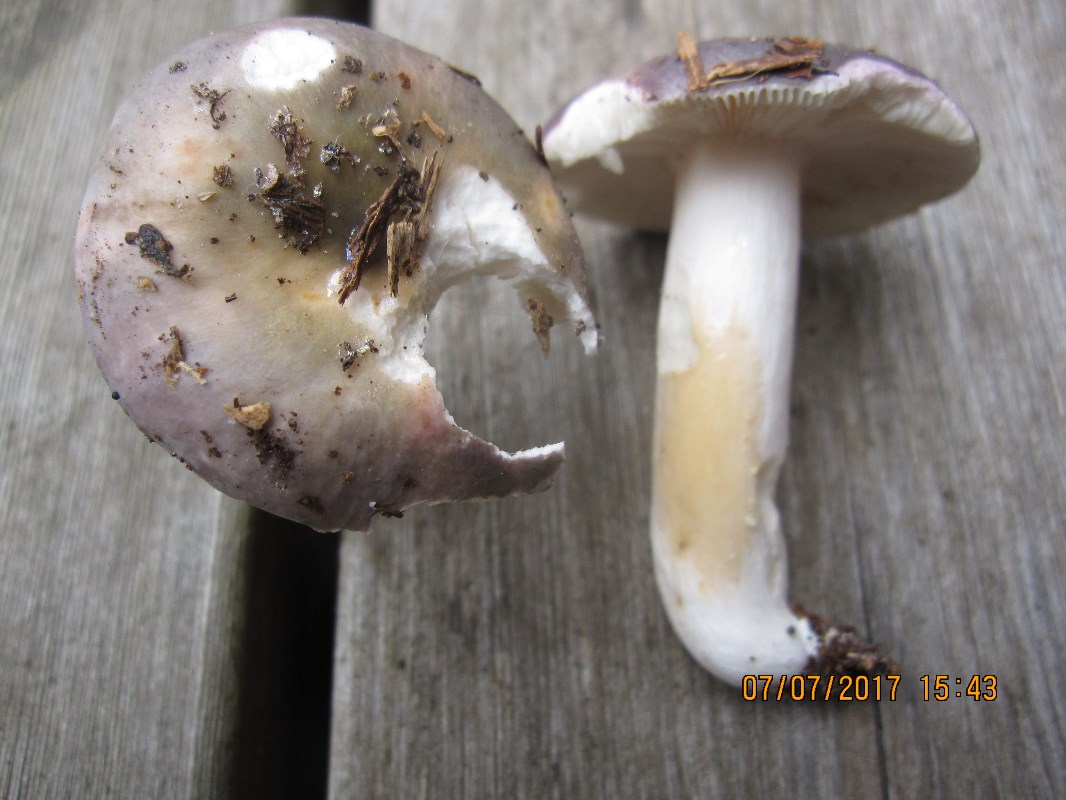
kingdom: Fungi
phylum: Basidiomycota
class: Agaricomycetes
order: Russulales
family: Russulaceae
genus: Russula
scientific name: Russula ionochlora
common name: violetgrøn skørhat
